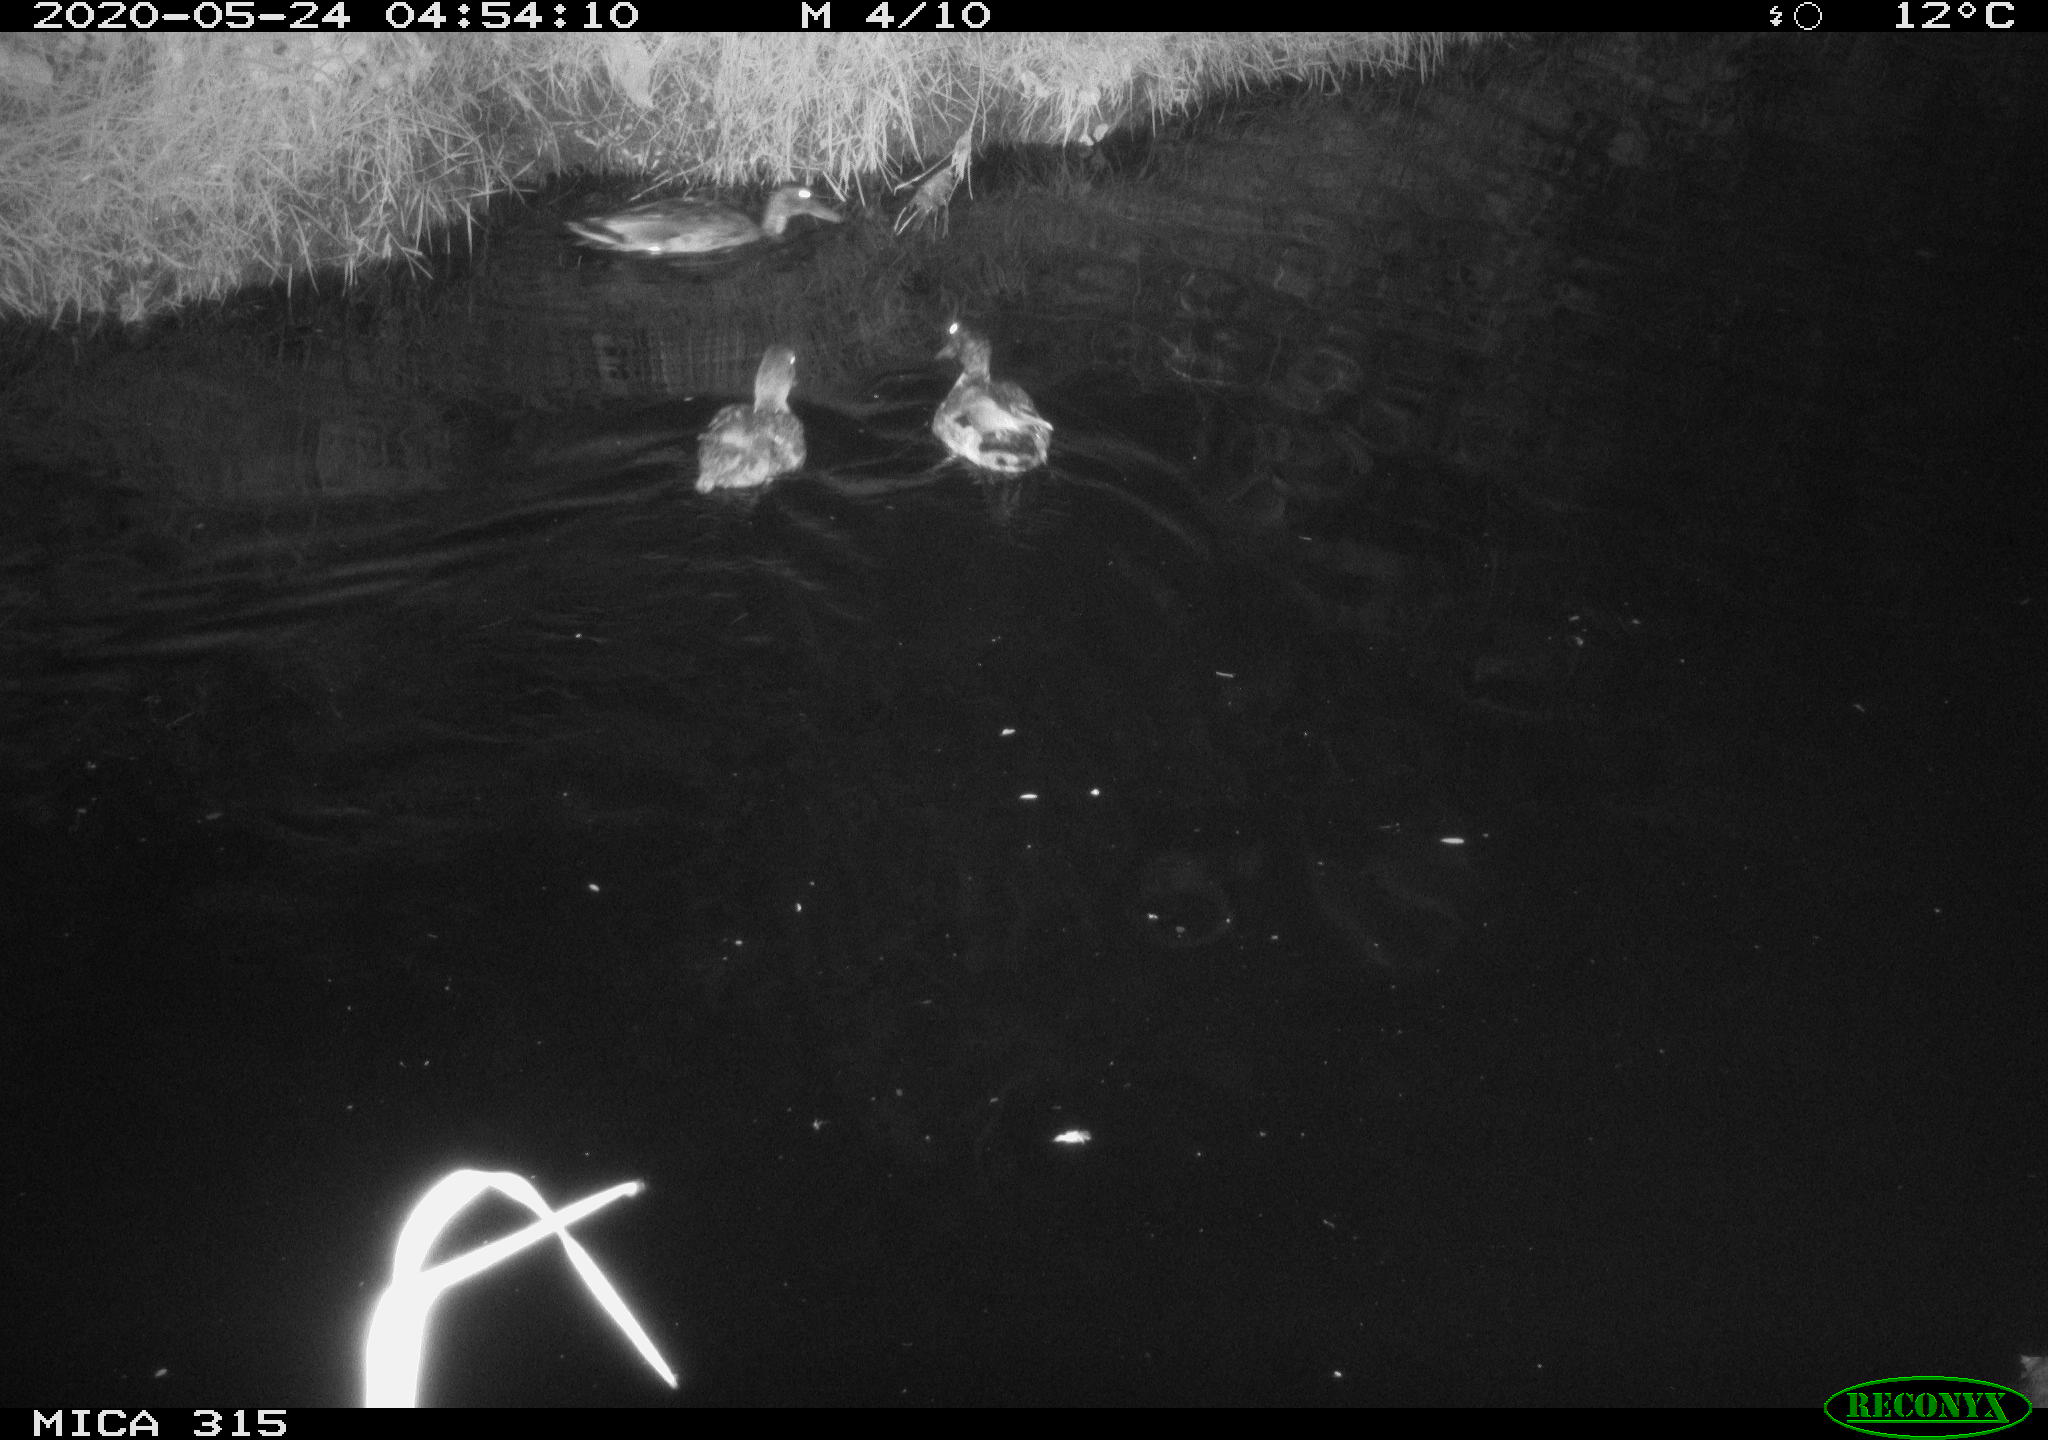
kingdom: Animalia
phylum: Chordata
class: Aves
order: Anseriformes
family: Anatidae
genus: Anas
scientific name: Anas platyrhynchos
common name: Mallard
